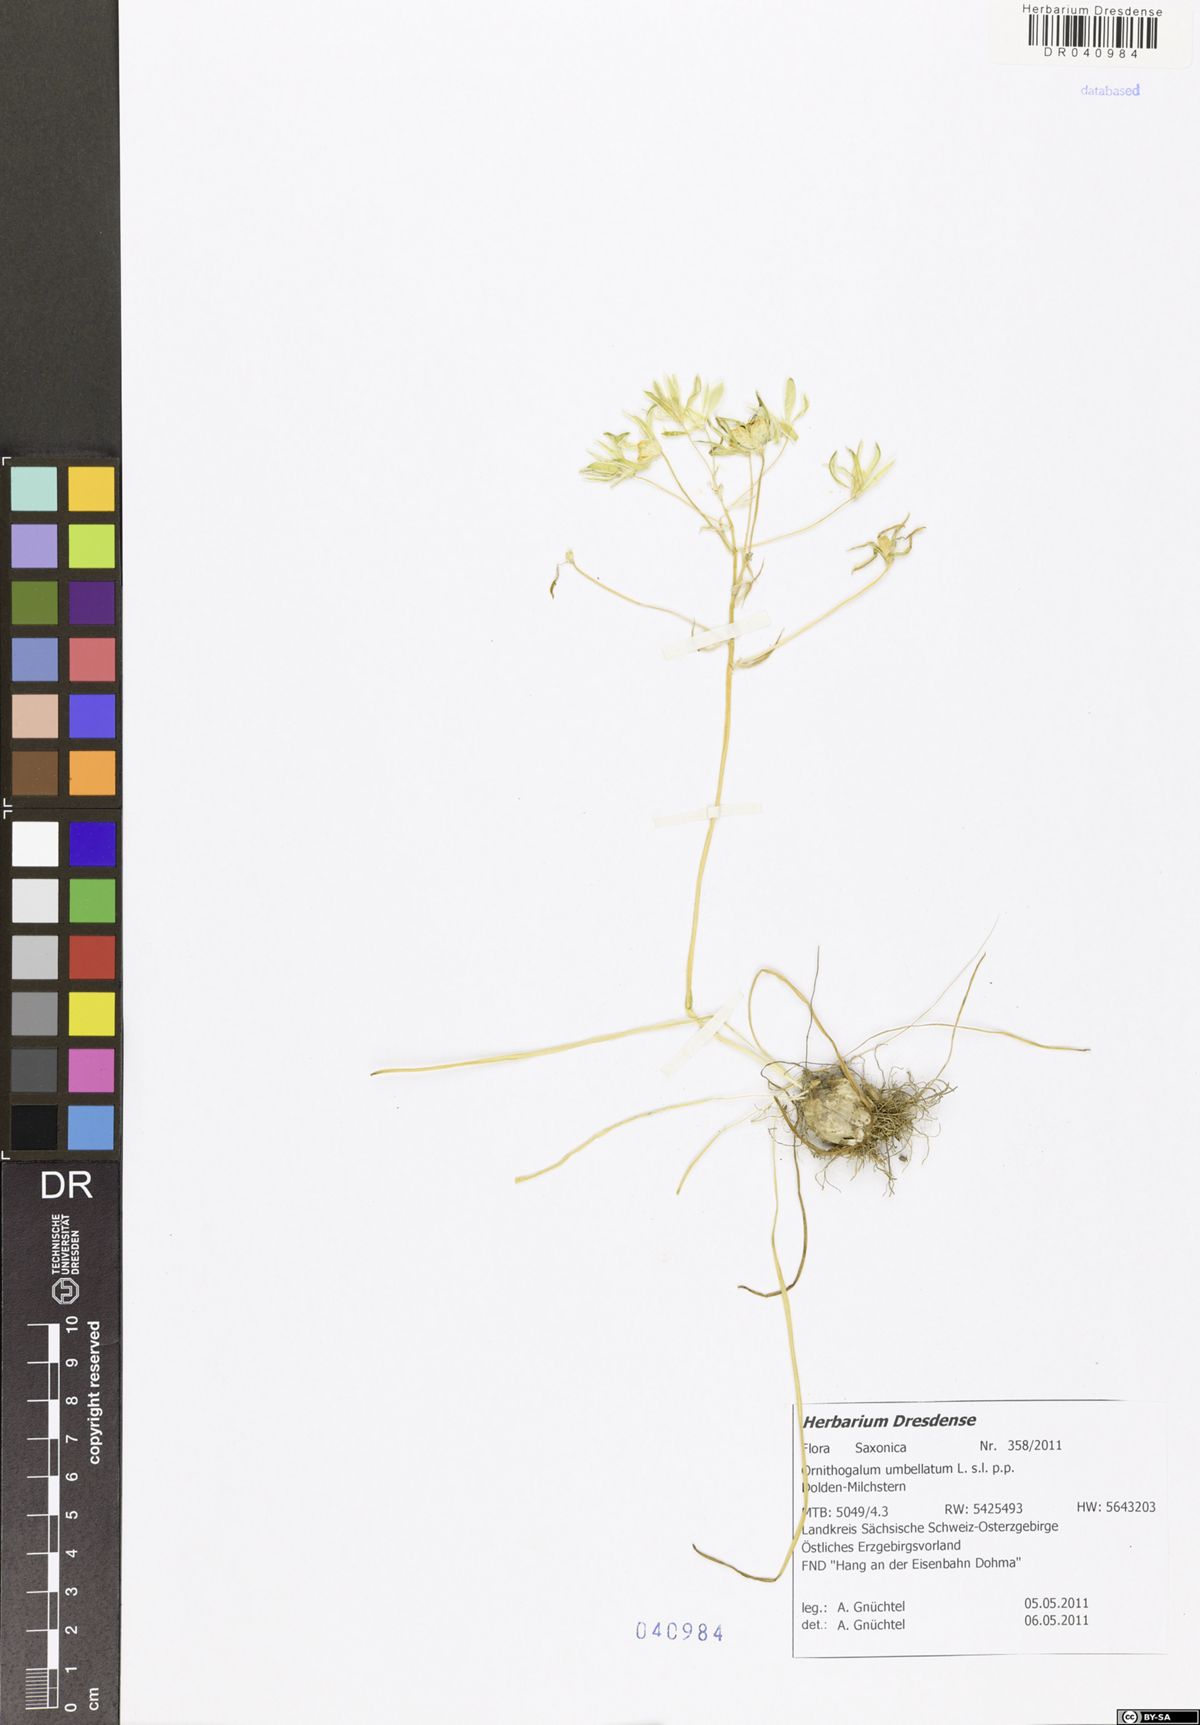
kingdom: Plantae
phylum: Tracheophyta
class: Liliopsida
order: Asparagales
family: Asparagaceae
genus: Ornithogalum
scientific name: Ornithogalum umbellatum
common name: Garden star-of-bethlehem
